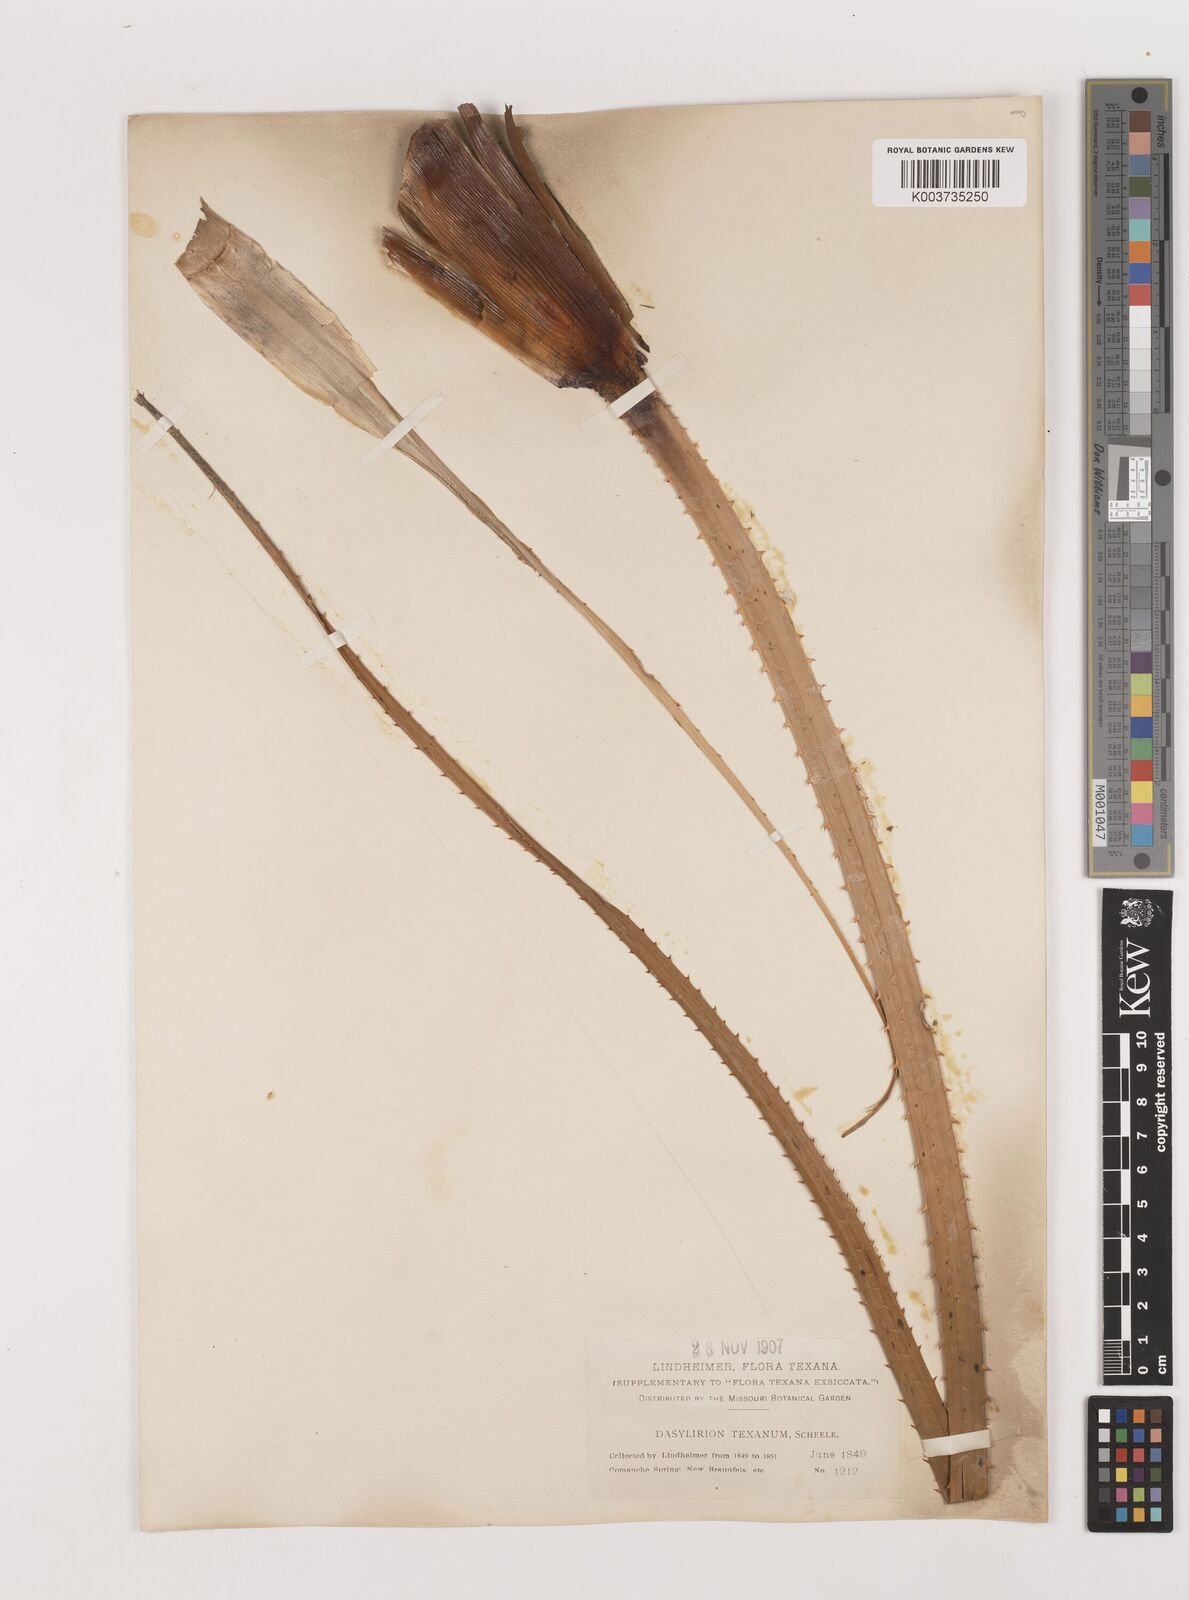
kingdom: Plantae
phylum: Tracheophyta
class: Liliopsida
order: Asparagales
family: Asparagaceae
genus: Dasylirion
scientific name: Dasylirion texanum
